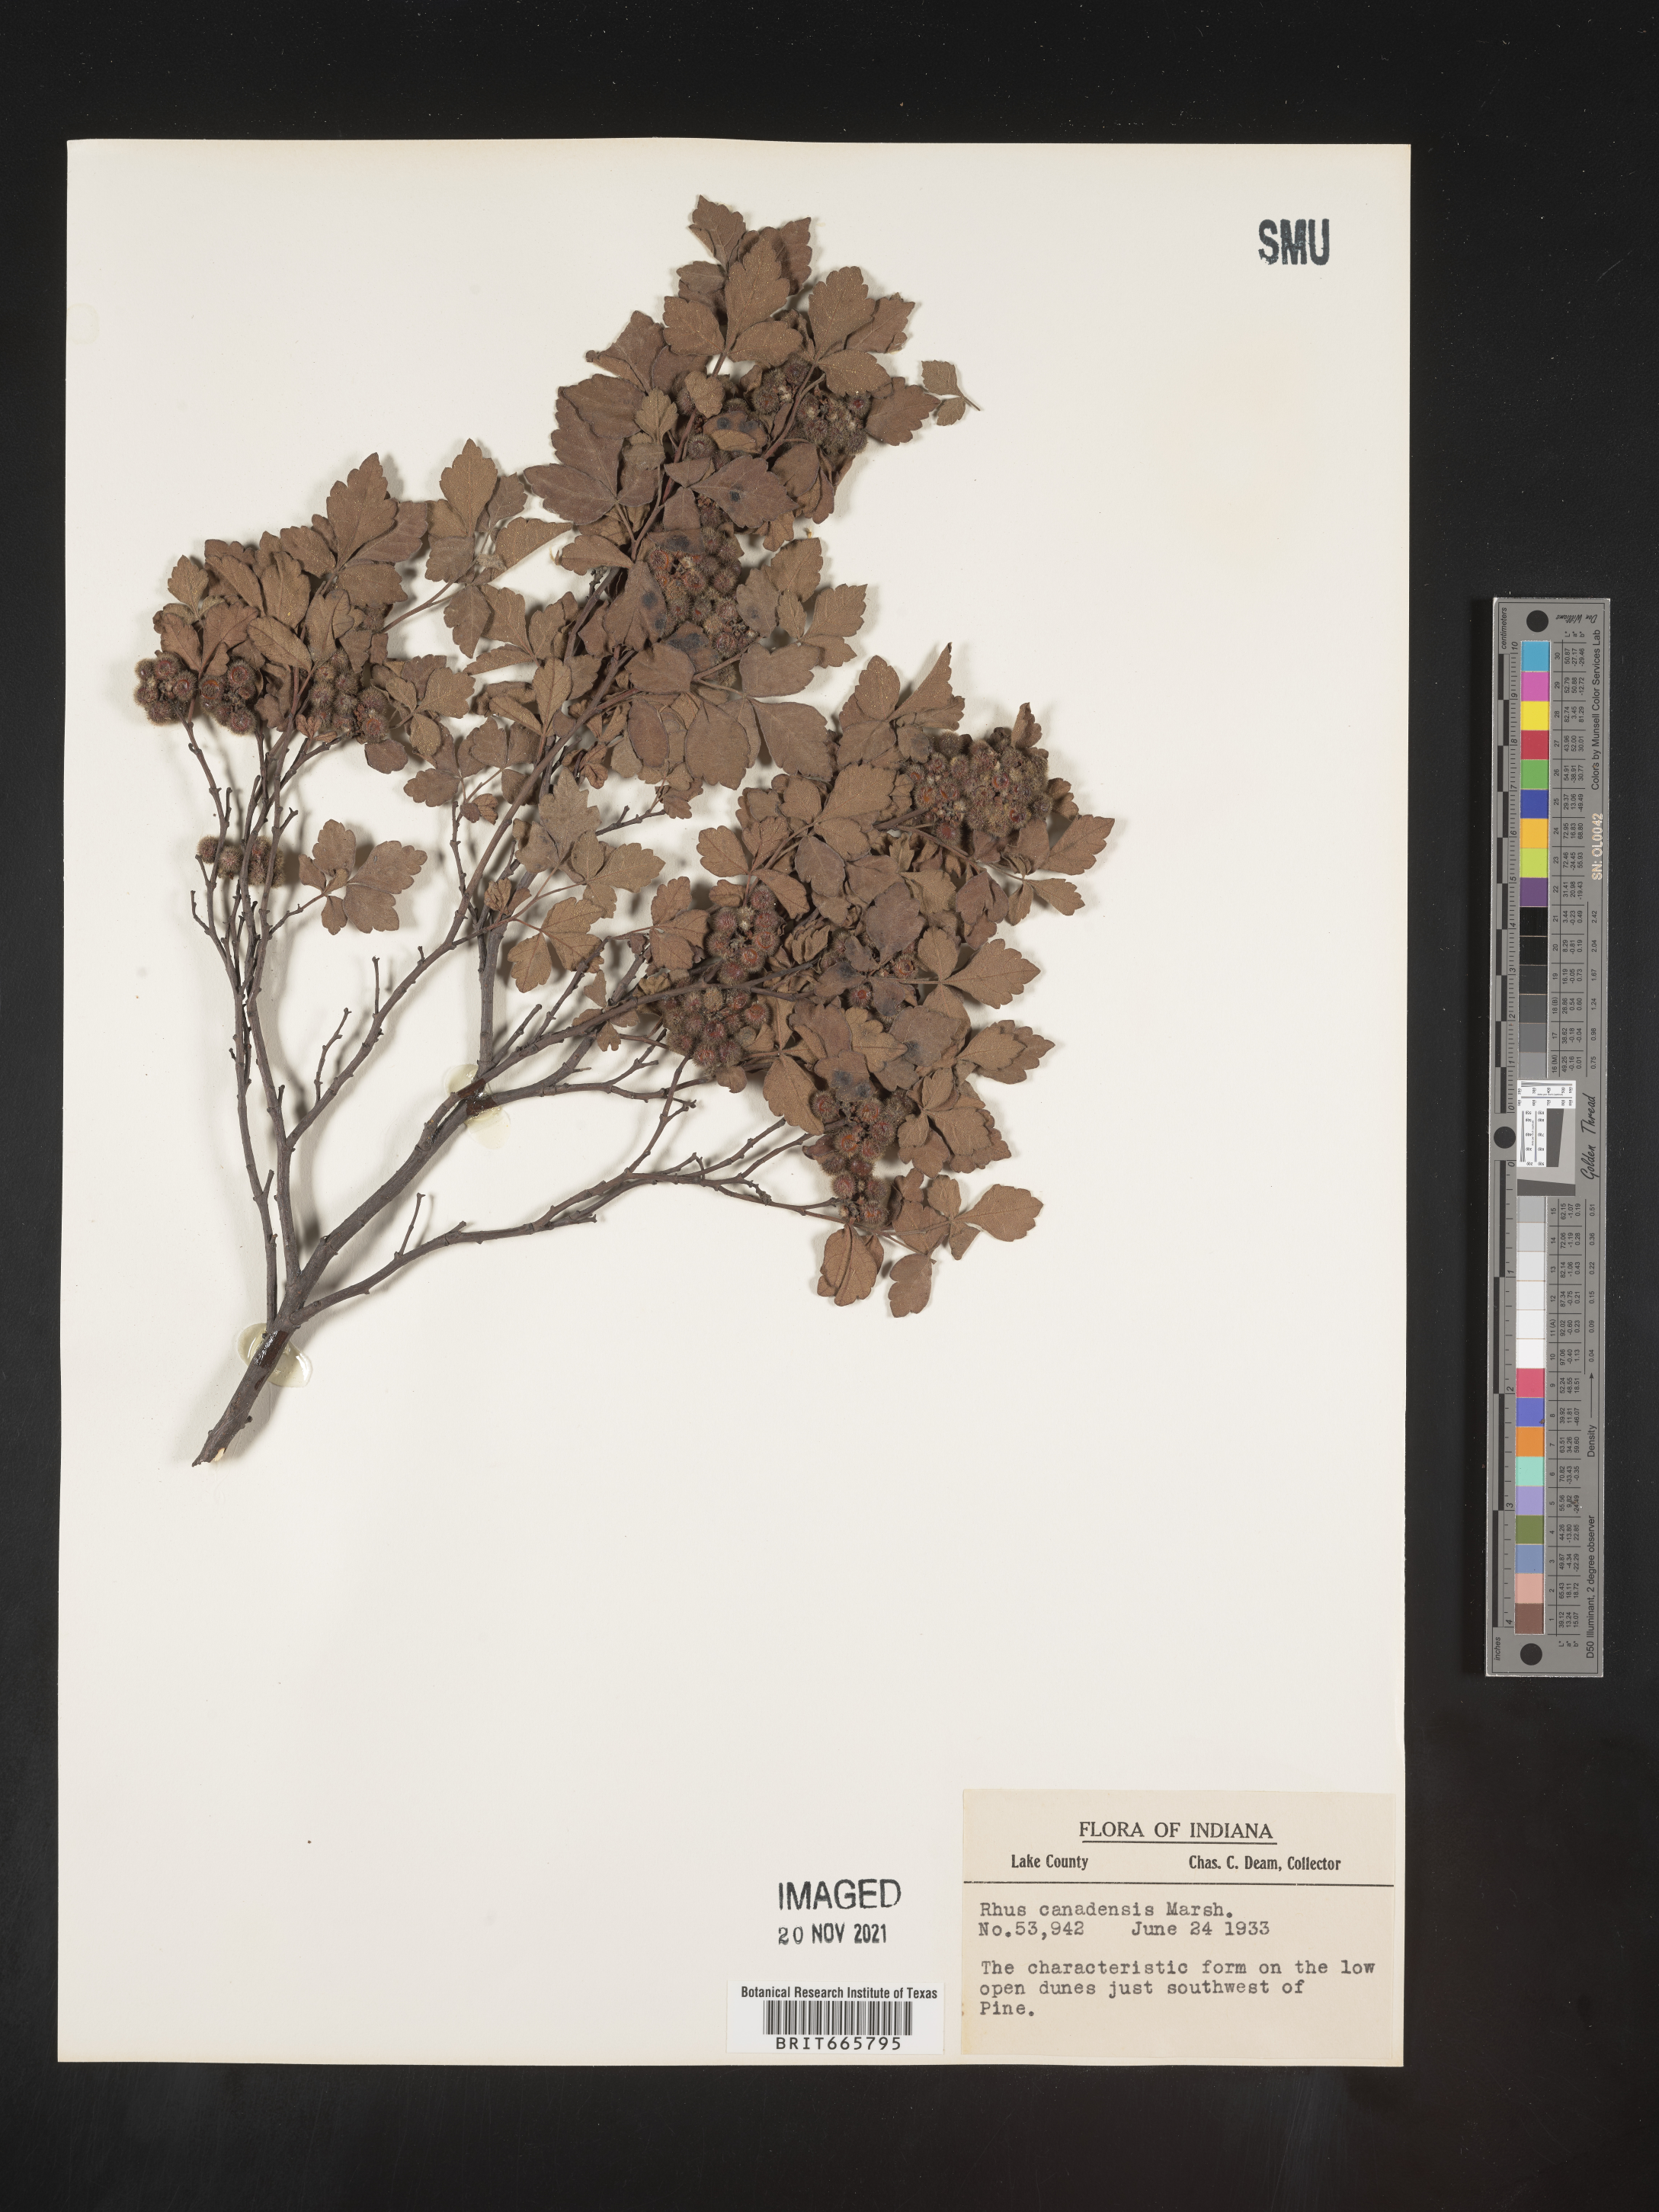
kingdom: Plantae
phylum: Tracheophyta
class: Magnoliopsida
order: Sapindales
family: Anacardiaceae
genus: Rhus
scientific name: Rhus aromatica
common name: Aromatic sumac
